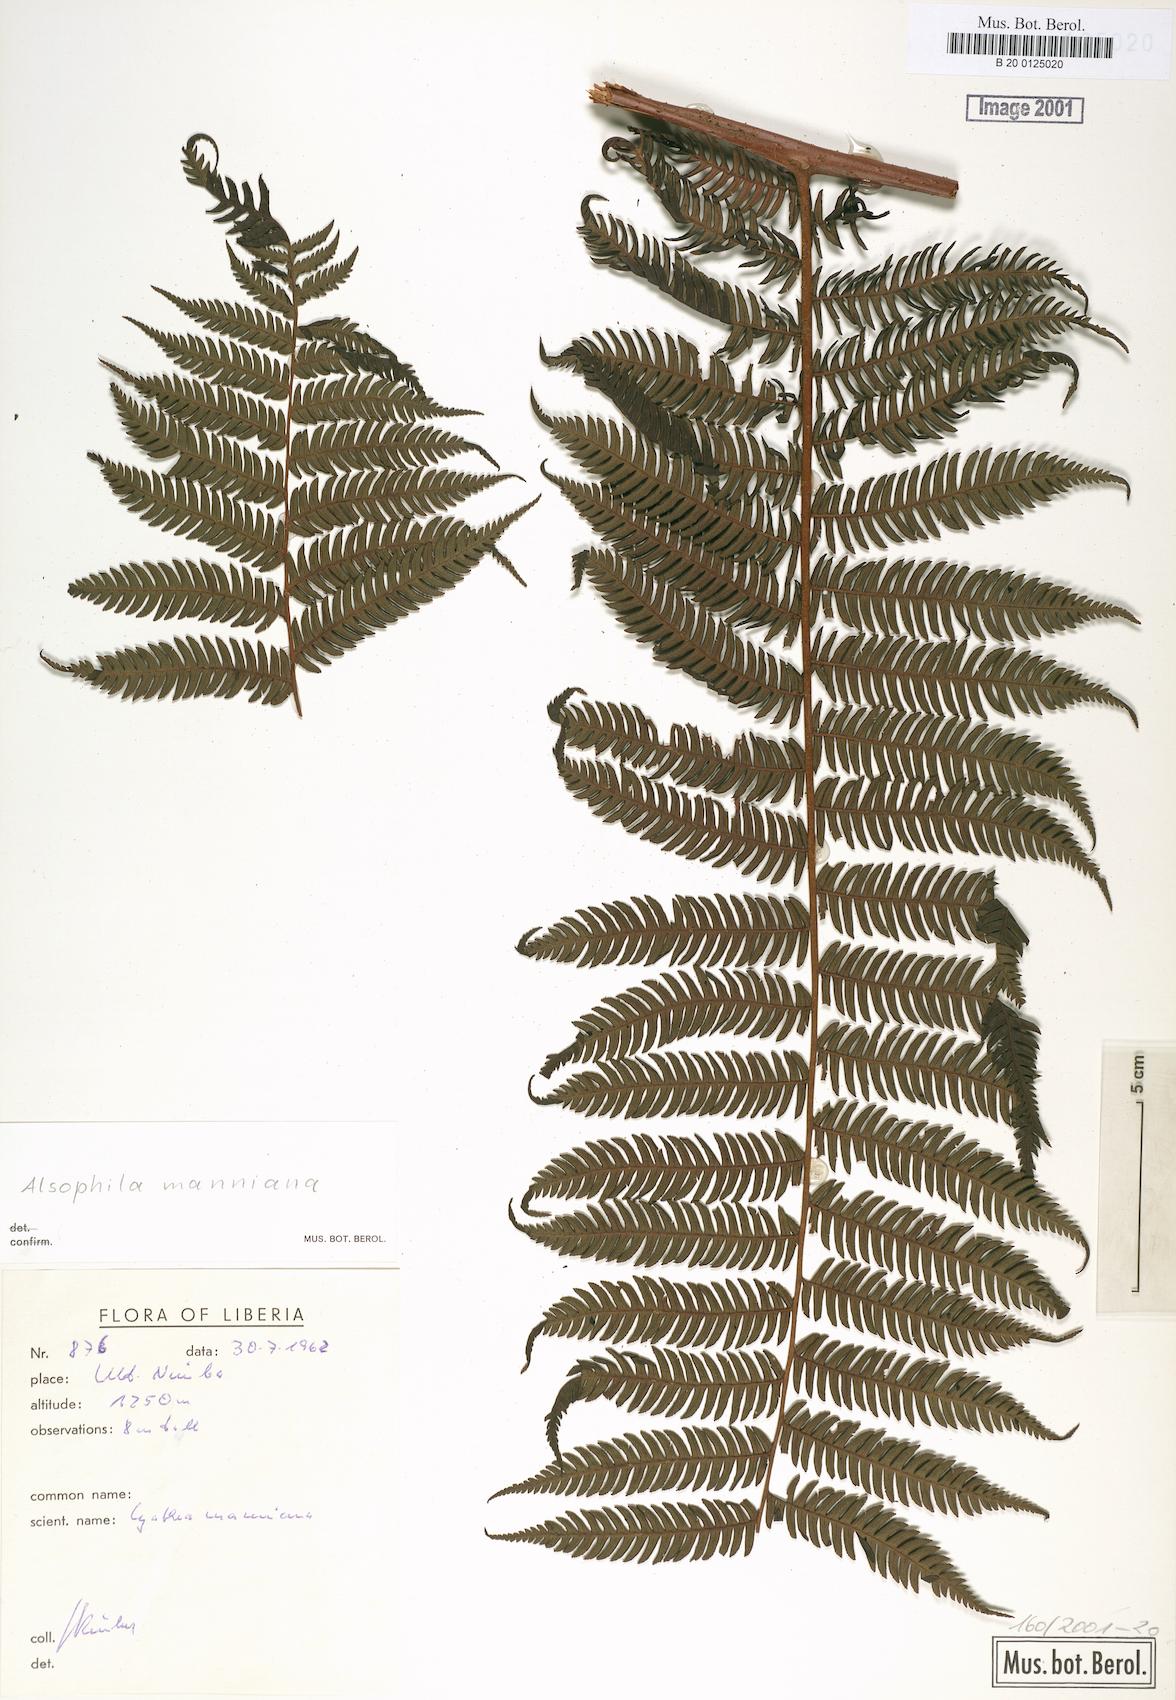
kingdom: Plantae
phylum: Tracheophyta
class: Polypodiopsida
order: Cyatheales
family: Cyatheaceae
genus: Alsophila
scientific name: Alsophila manniana
